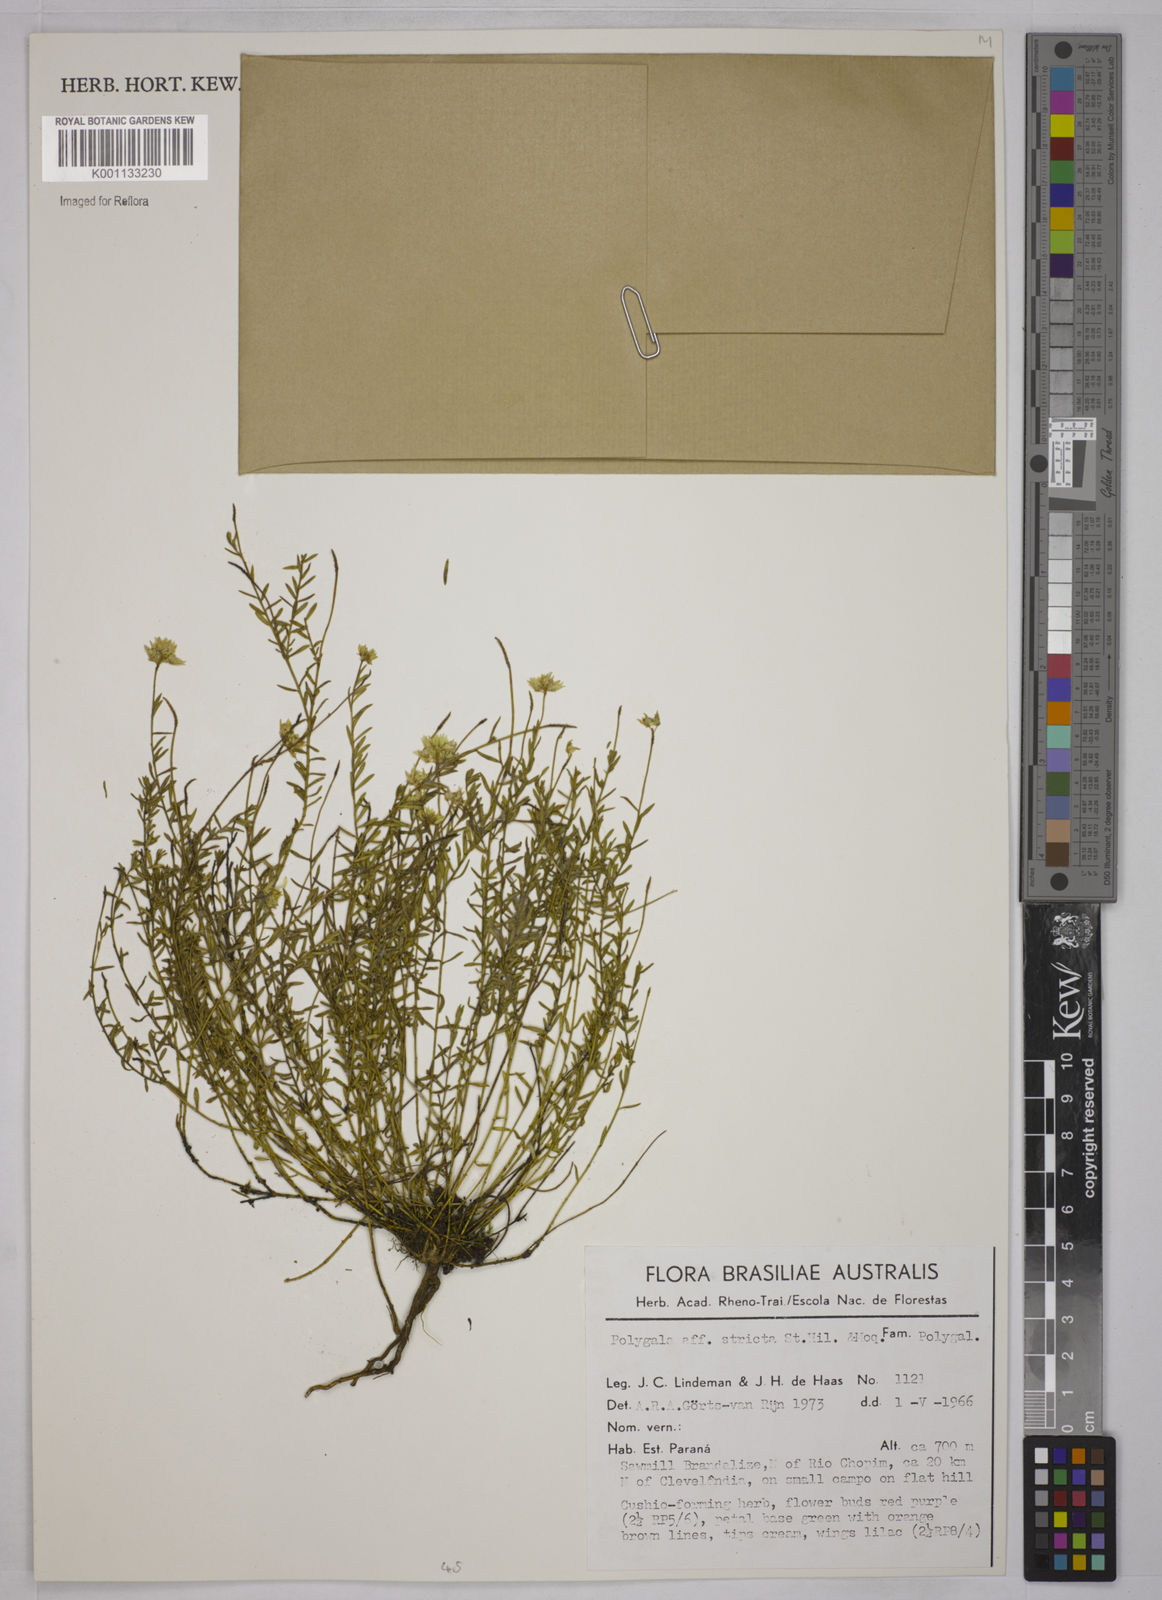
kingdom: Plantae
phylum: Tracheophyta
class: Magnoliopsida
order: Fabales
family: Polygalaceae
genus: Polygala
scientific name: Polygala stricta
